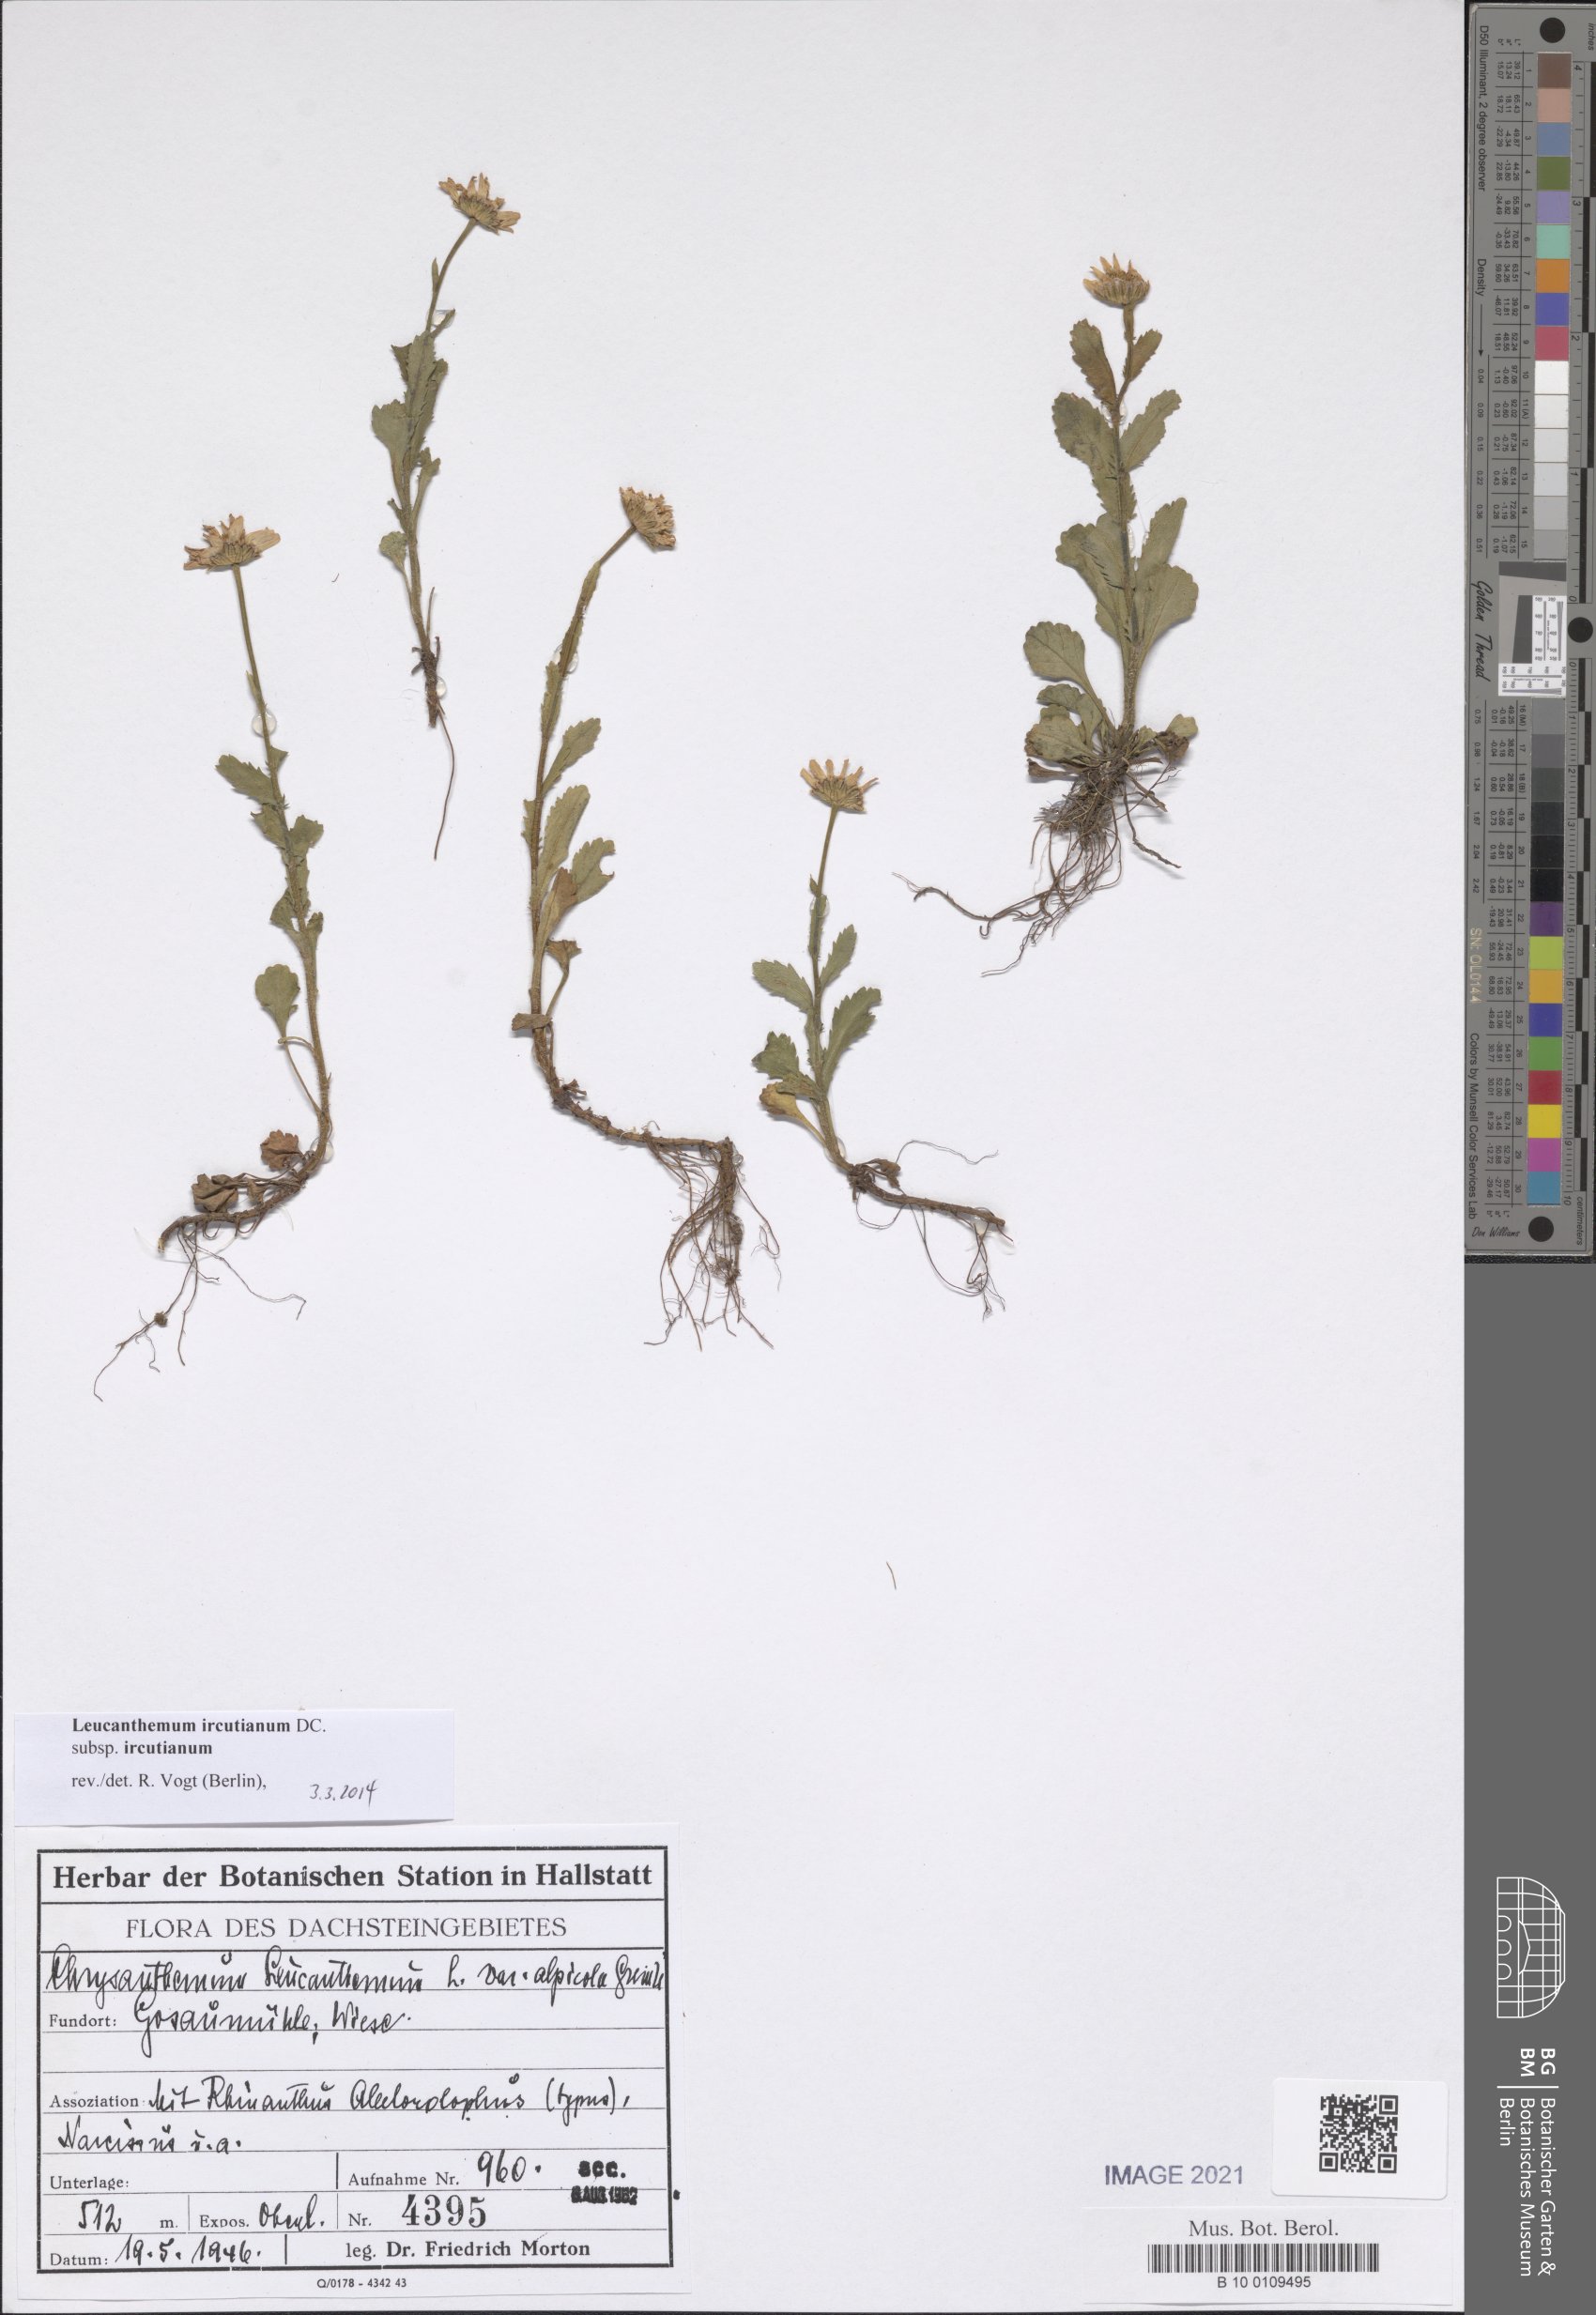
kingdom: Plantae
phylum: Tracheophyta
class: Magnoliopsida
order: Asterales
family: Asteraceae
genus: Leucanthemum
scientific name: Leucanthemum ircutianum
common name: Daisy
